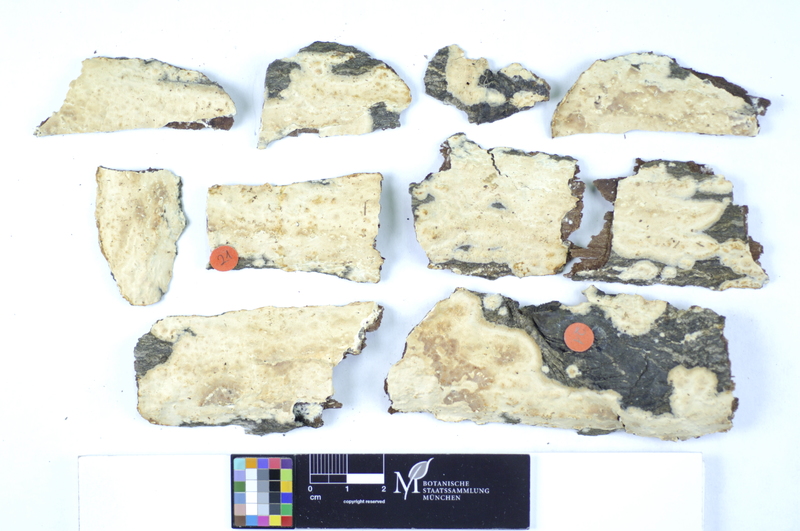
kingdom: Fungi
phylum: Basidiomycota
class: Agaricomycetes
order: Polyporales
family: Hyphodermataceae
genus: Mutatoderma
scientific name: Mutatoderma mutatum
